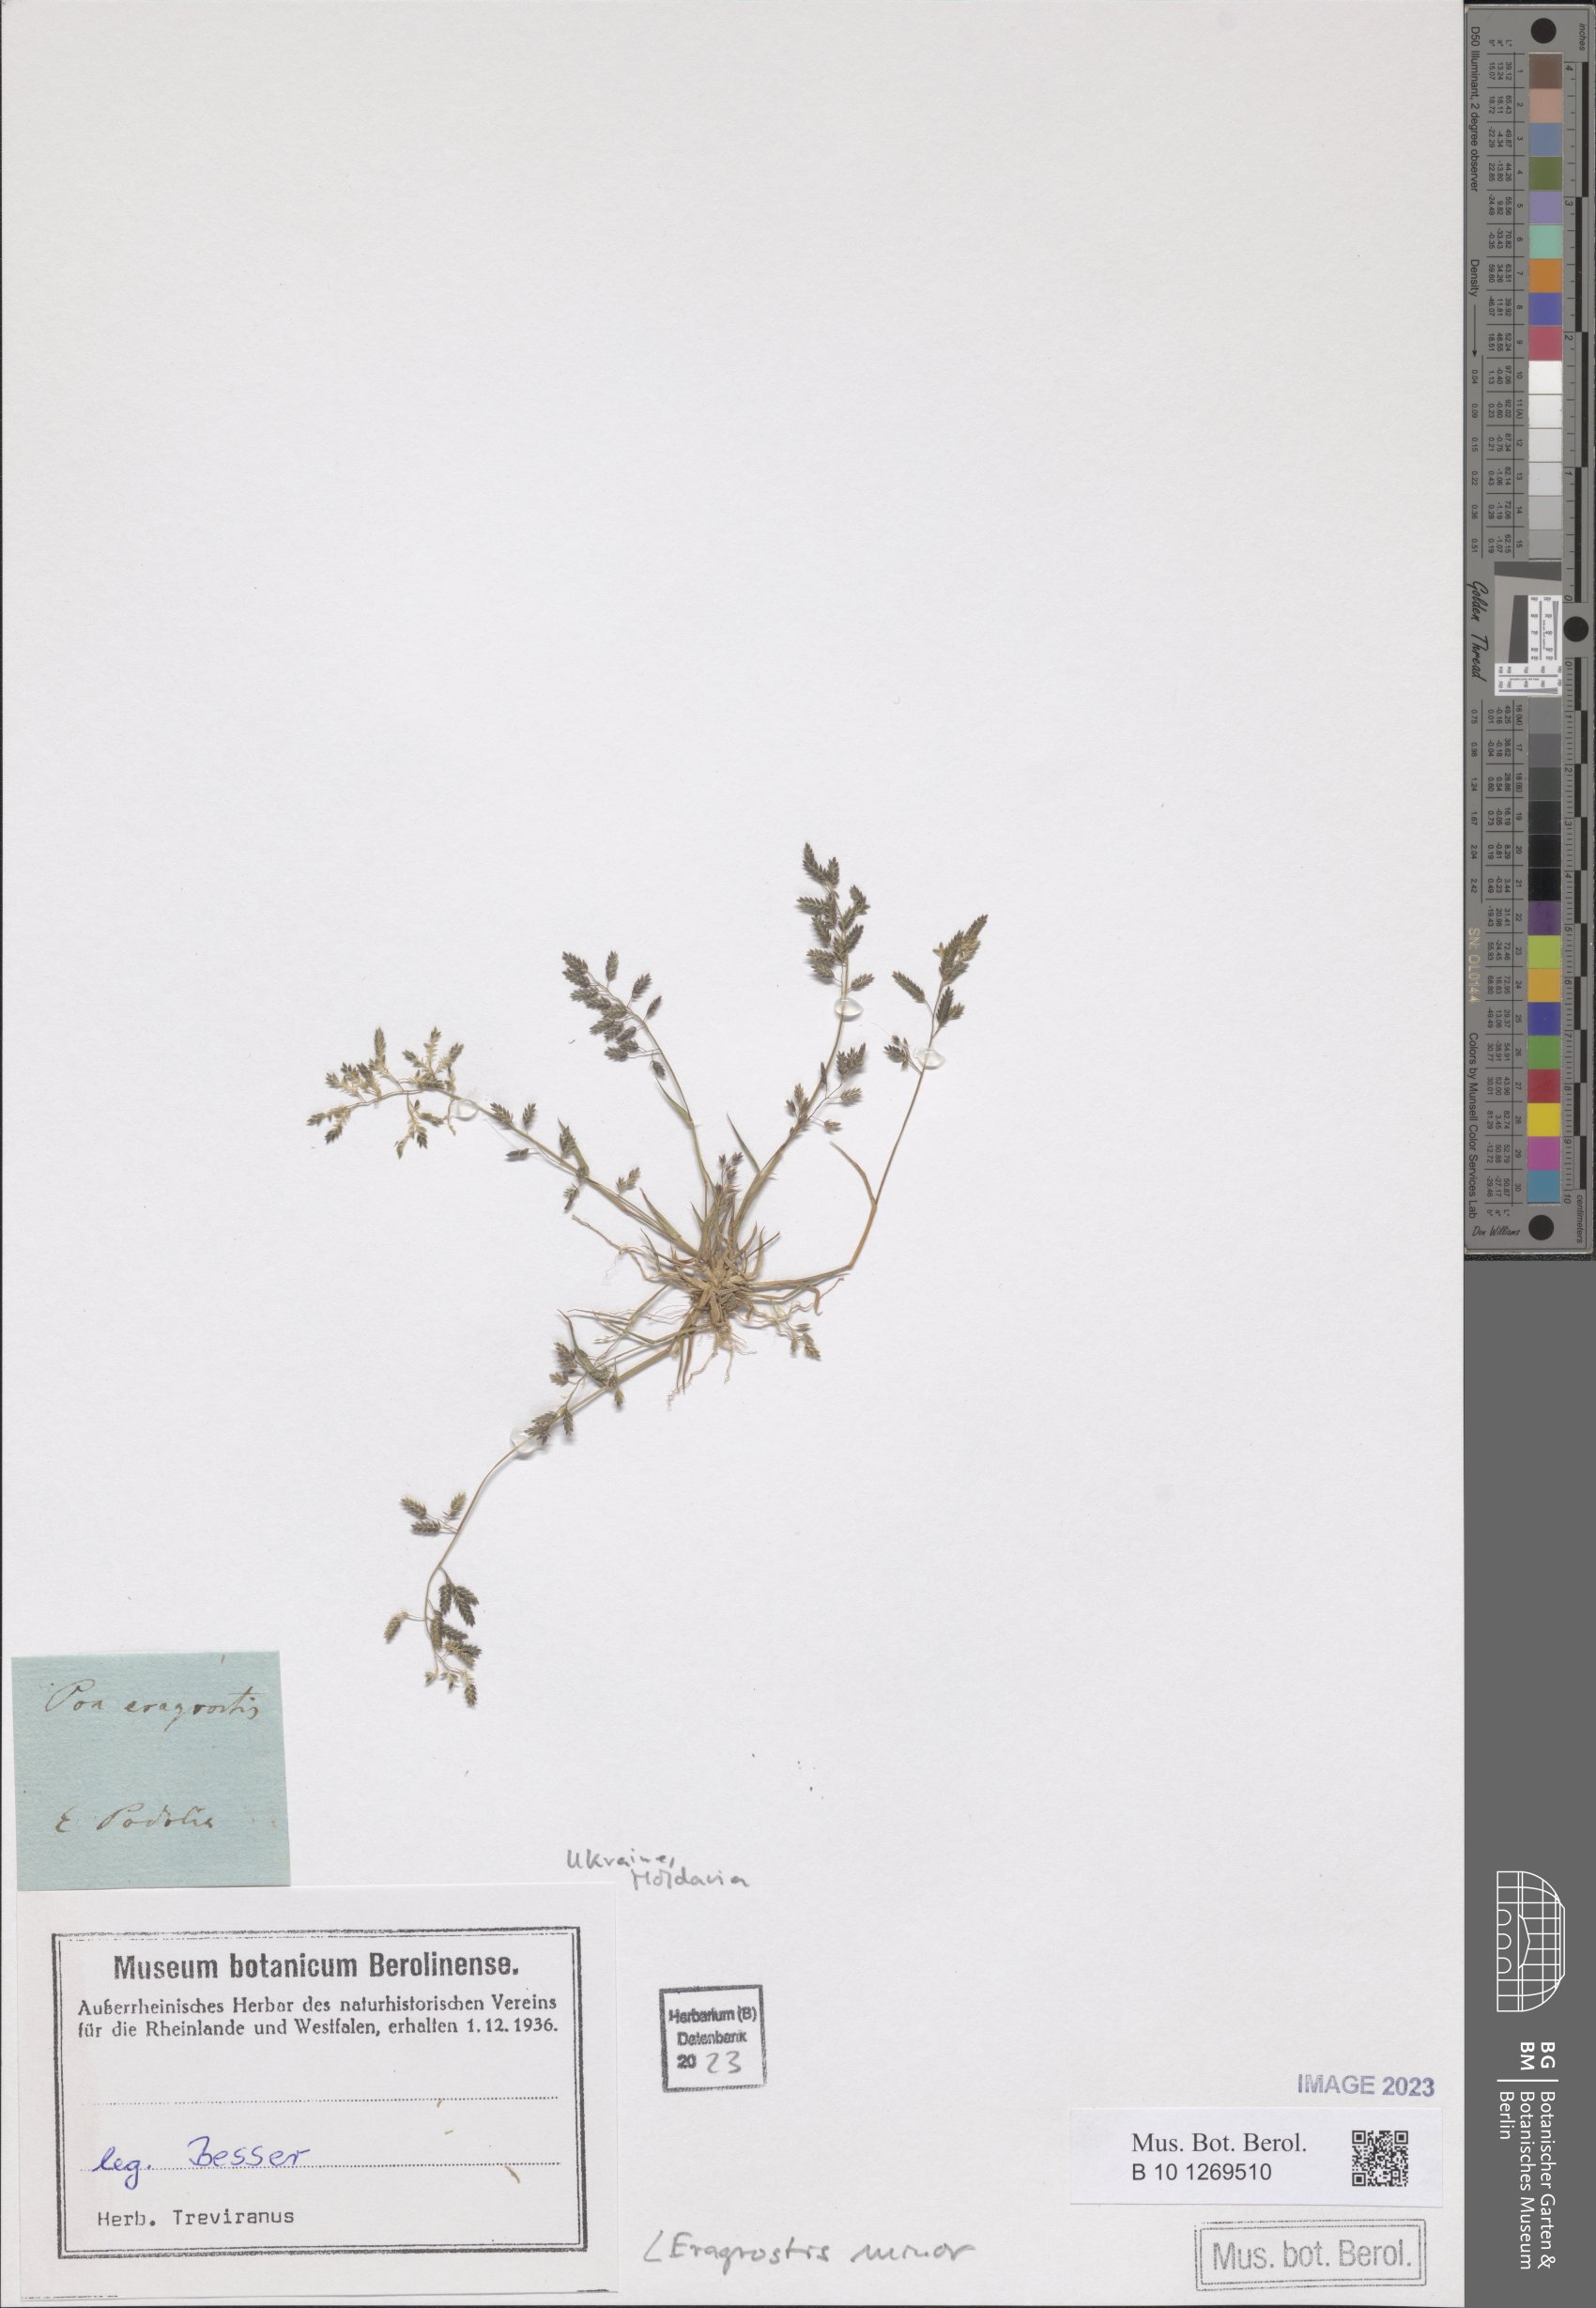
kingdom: Plantae
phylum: Tracheophyta
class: Liliopsida
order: Poales
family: Poaceae
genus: Eragrostis
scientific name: Eragrostis minor
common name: Small love-grass
